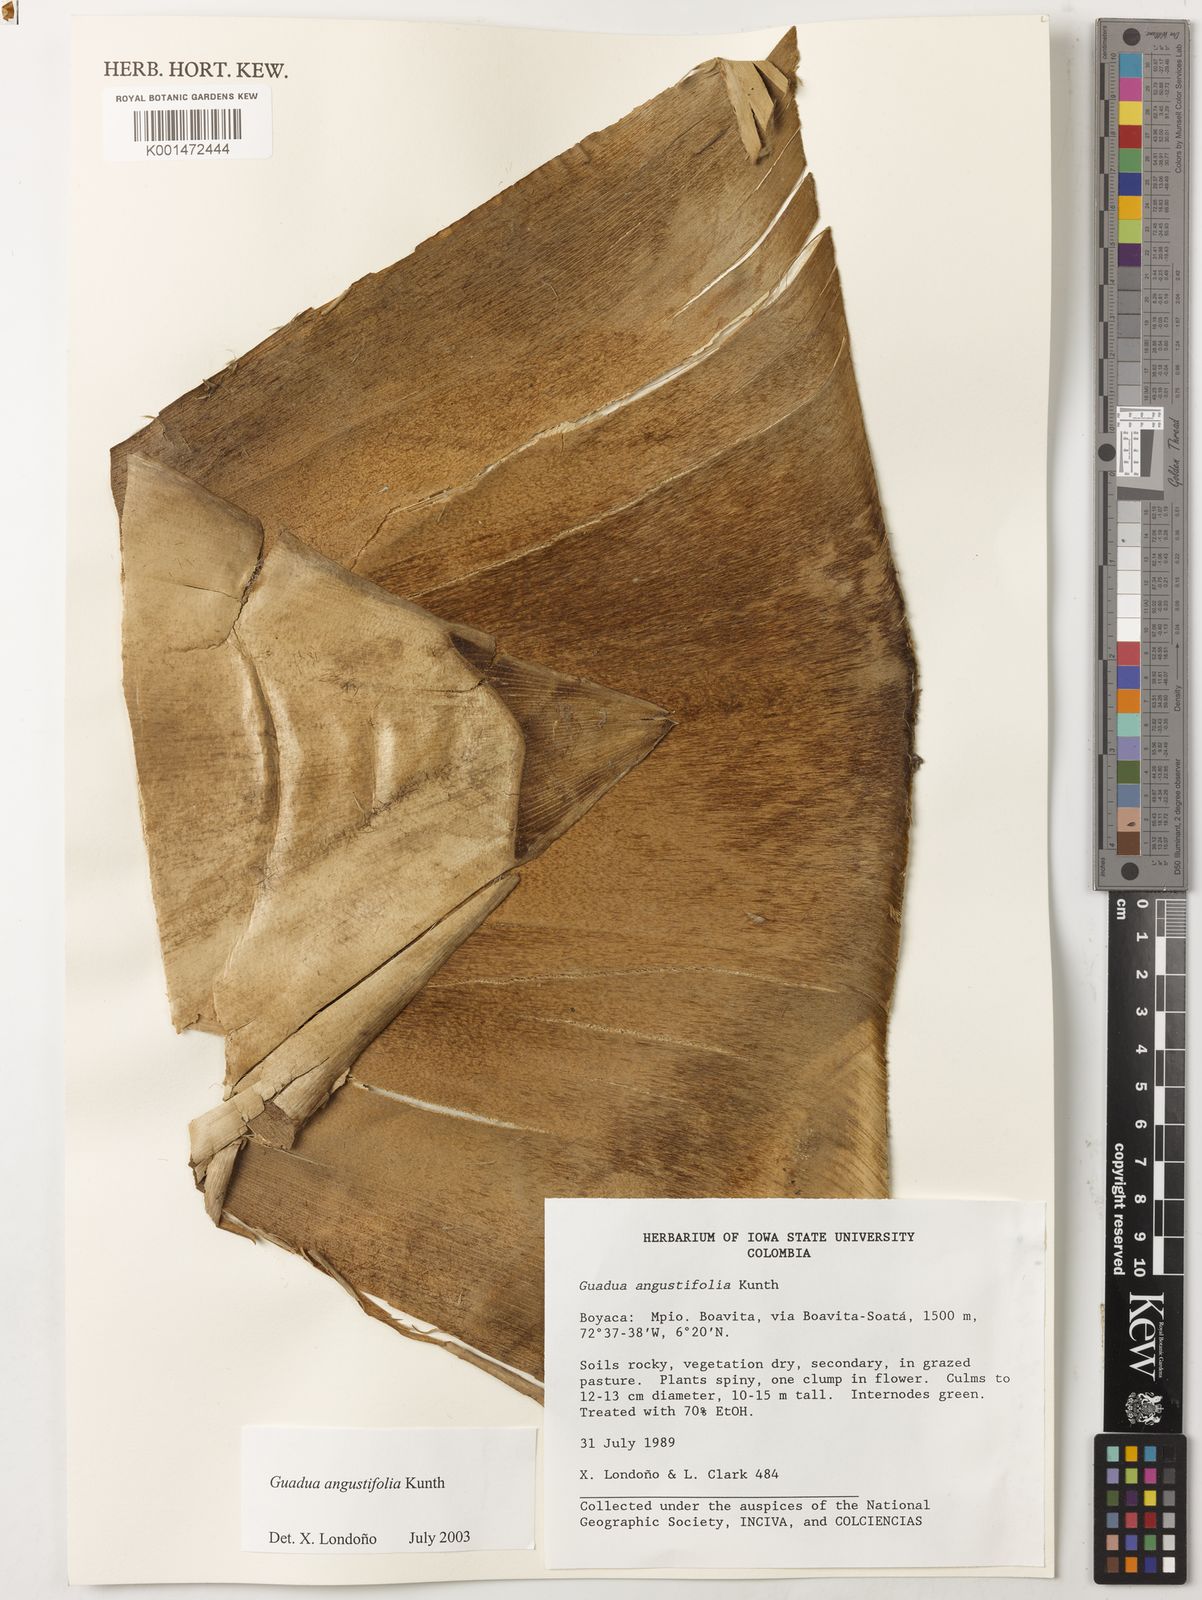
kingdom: Plantae
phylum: Tracheophyta
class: Liliopsida
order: Poales
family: Poaceae
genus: Guadua
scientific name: Guadua angustifolia
